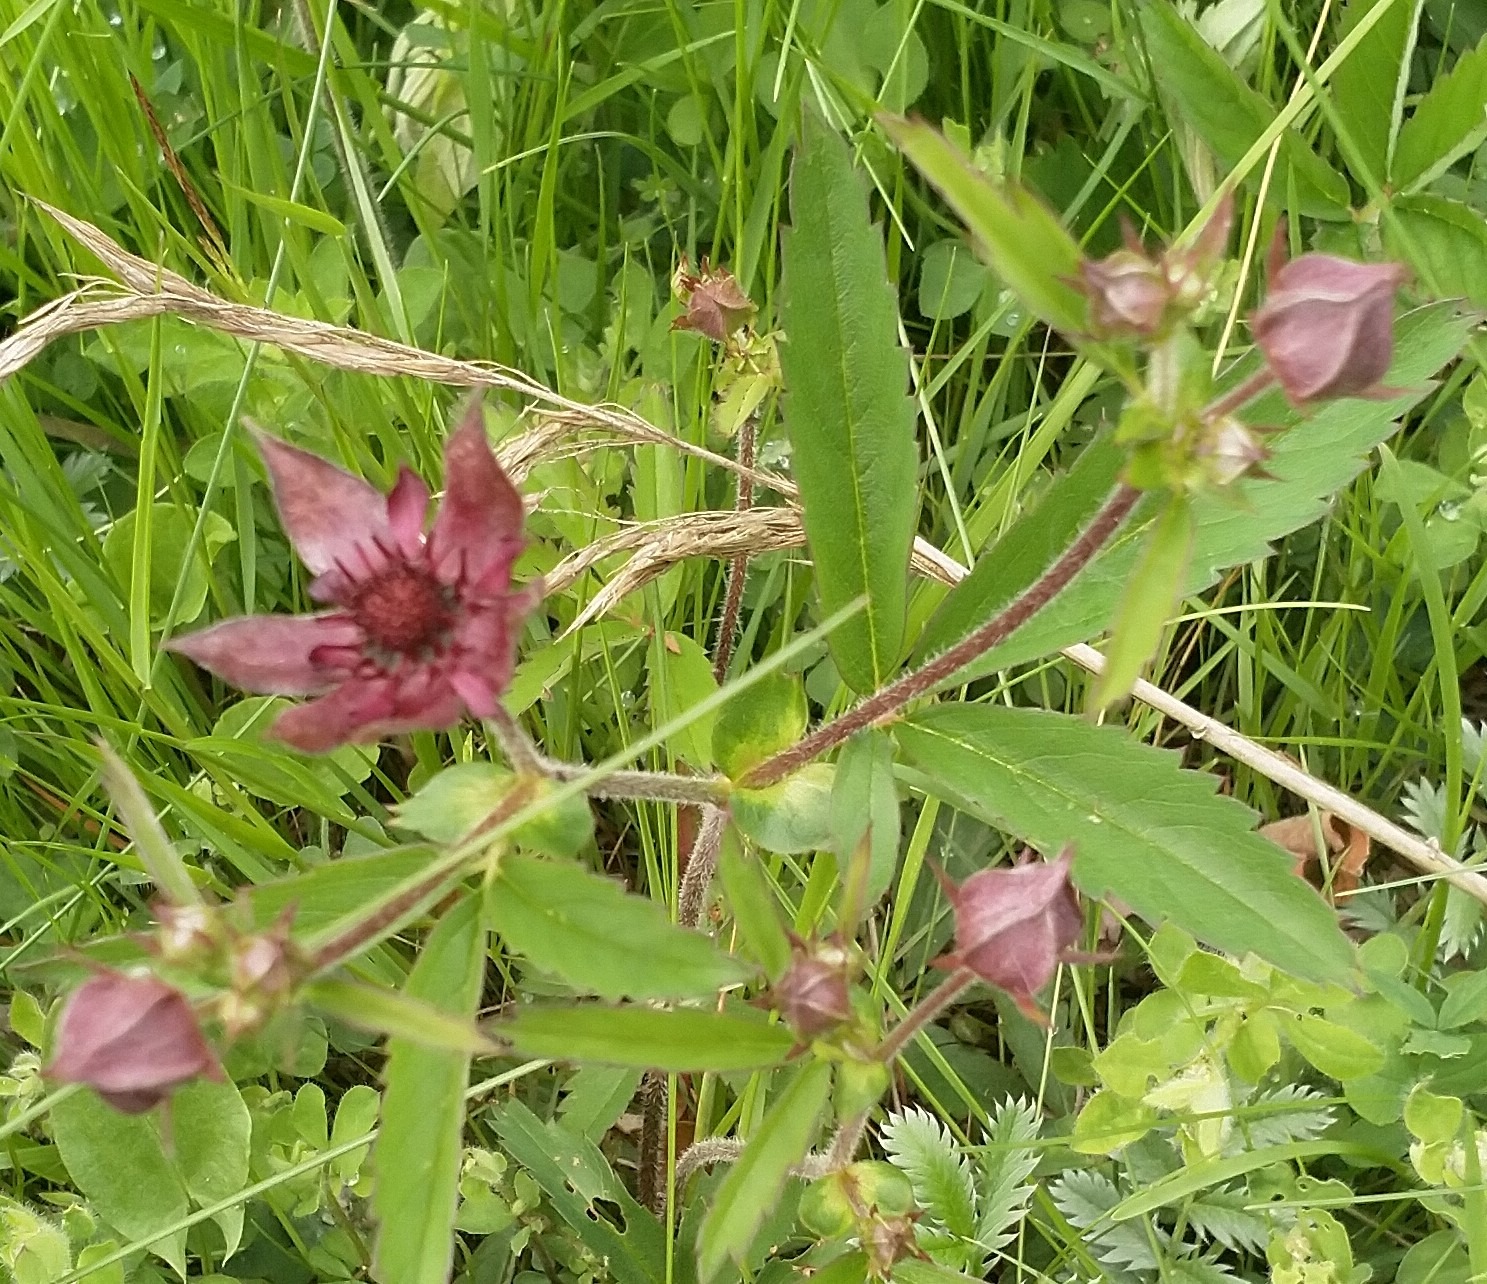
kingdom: Plantae
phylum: Tracheophyta
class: Magnoliopsida
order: Rosales
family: Rosaceae
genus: Comarum
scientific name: Comarum palustre
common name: Kragefod
